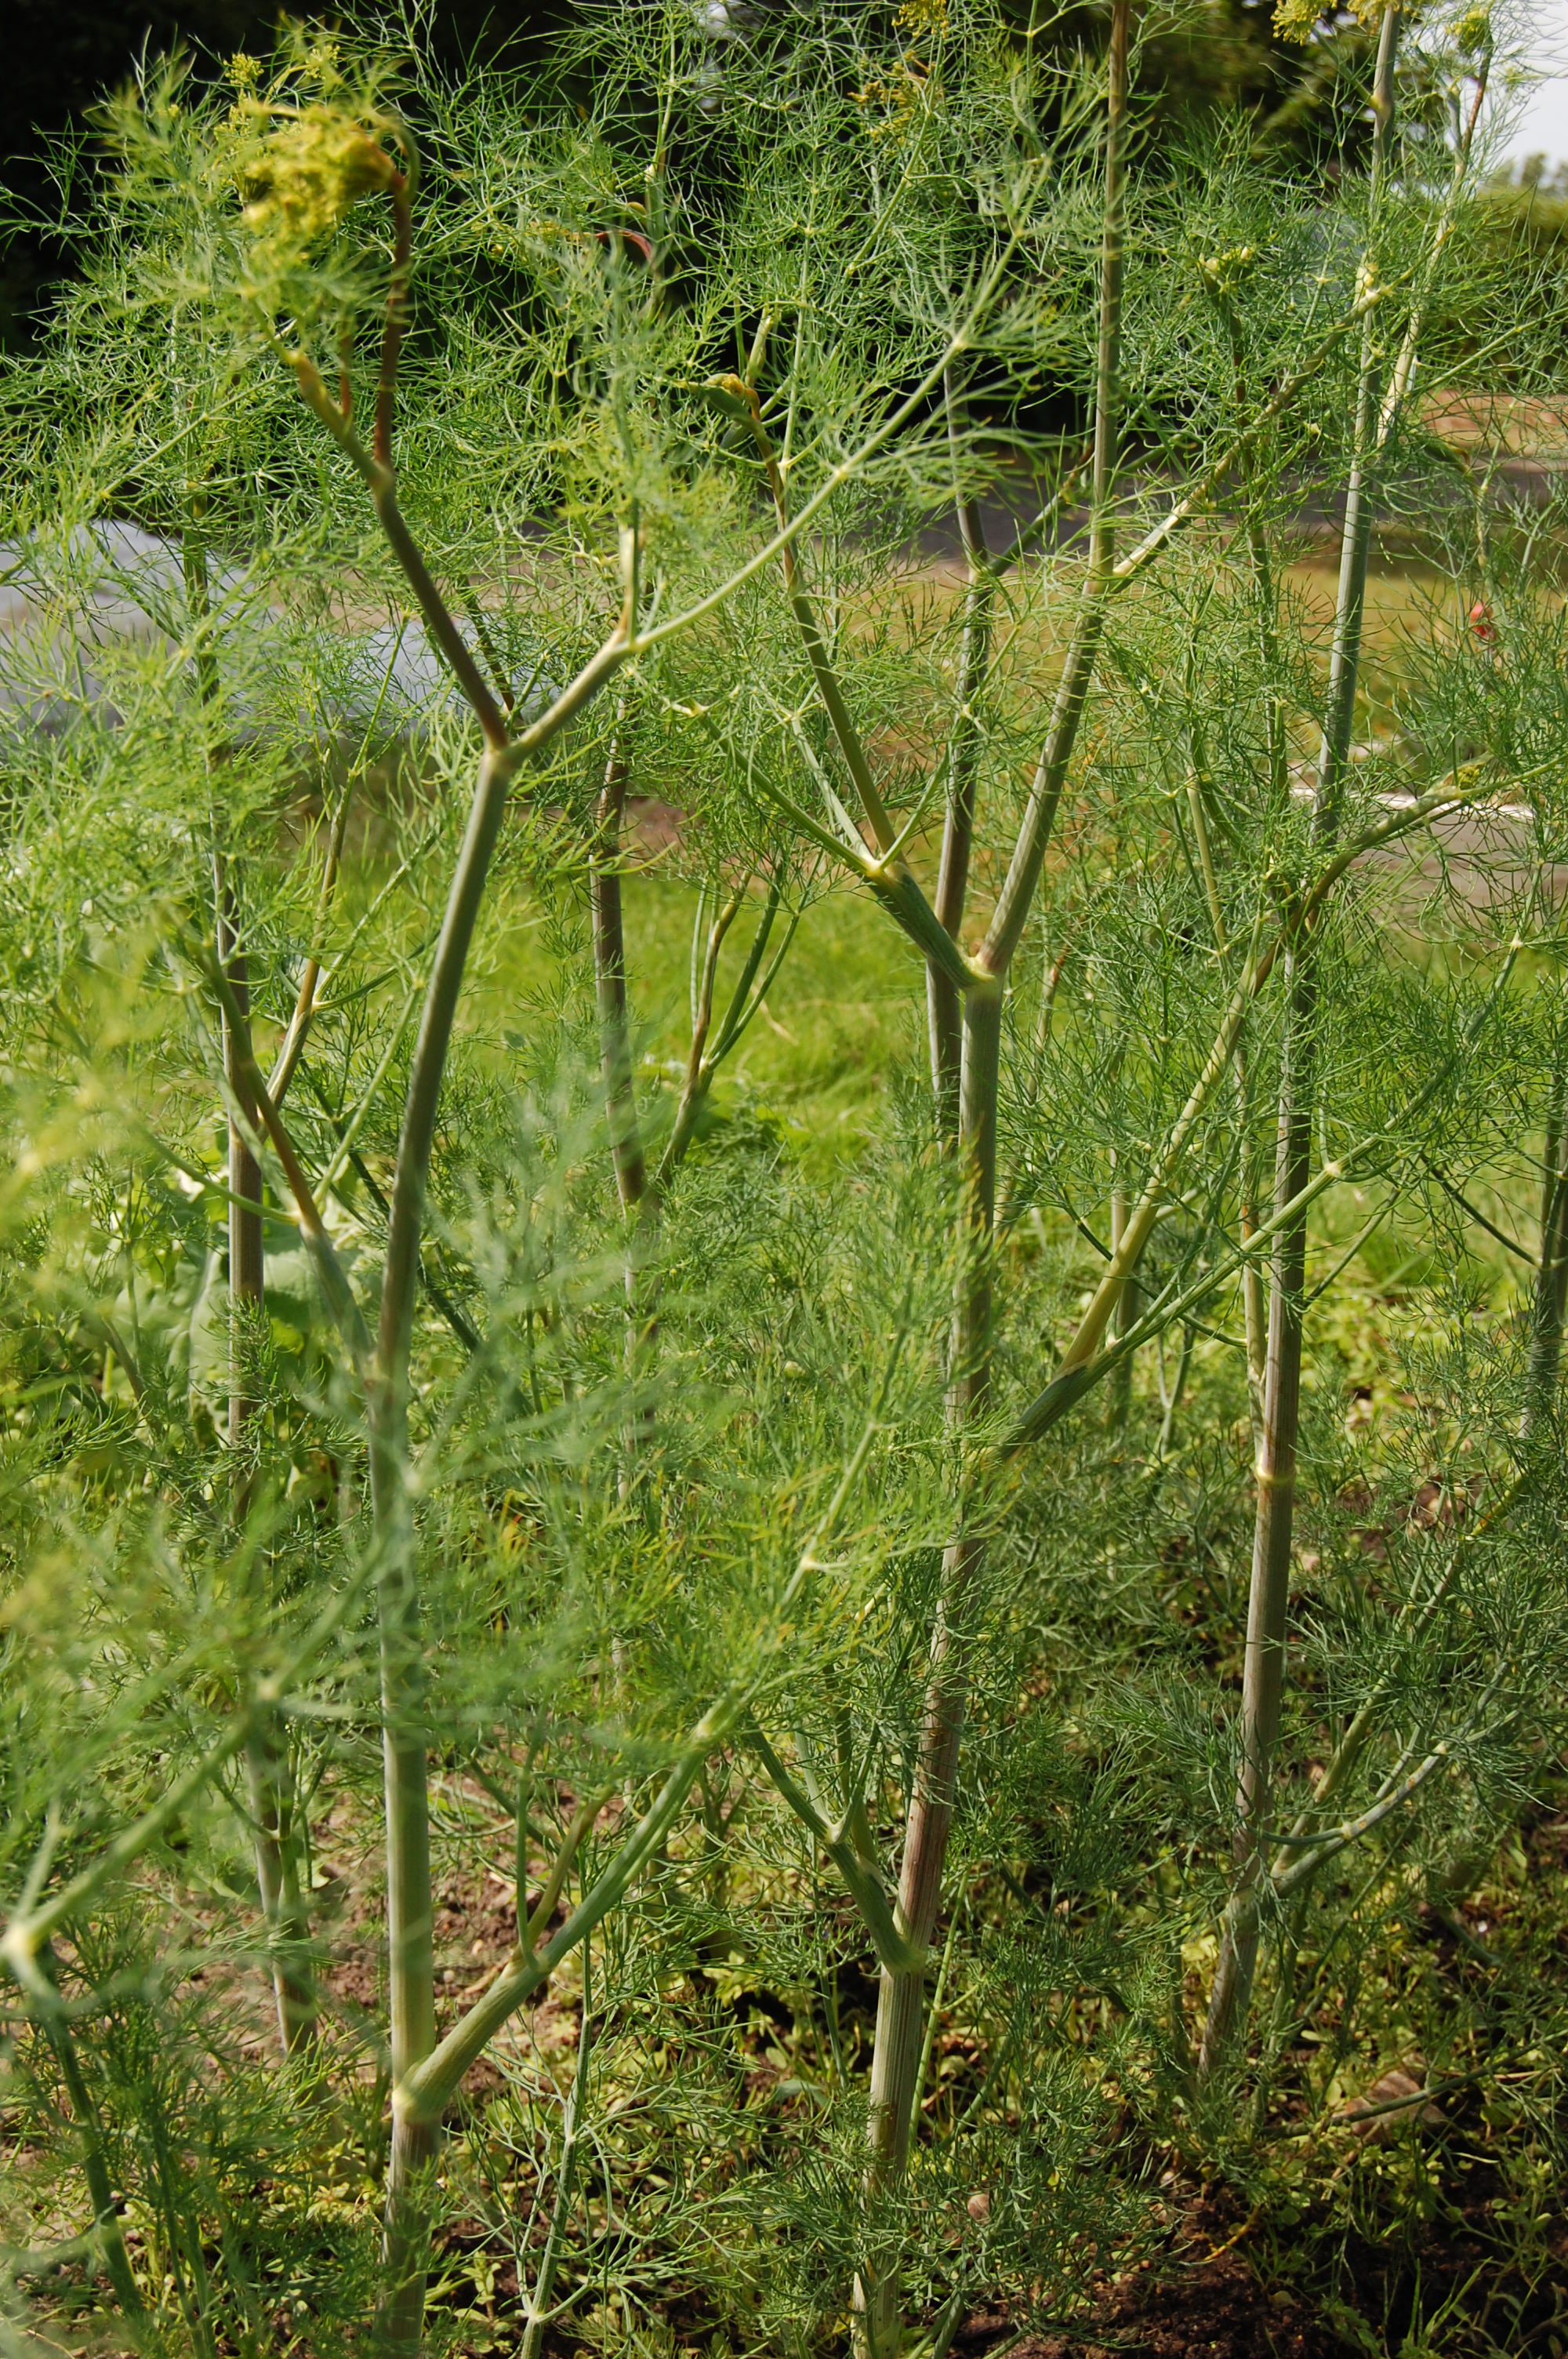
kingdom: Plantae
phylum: Tracheophyta
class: Magnoliopsida
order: Apiales
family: Apiaceae
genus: Anethum
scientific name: Anethum graveolens
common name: Dill
